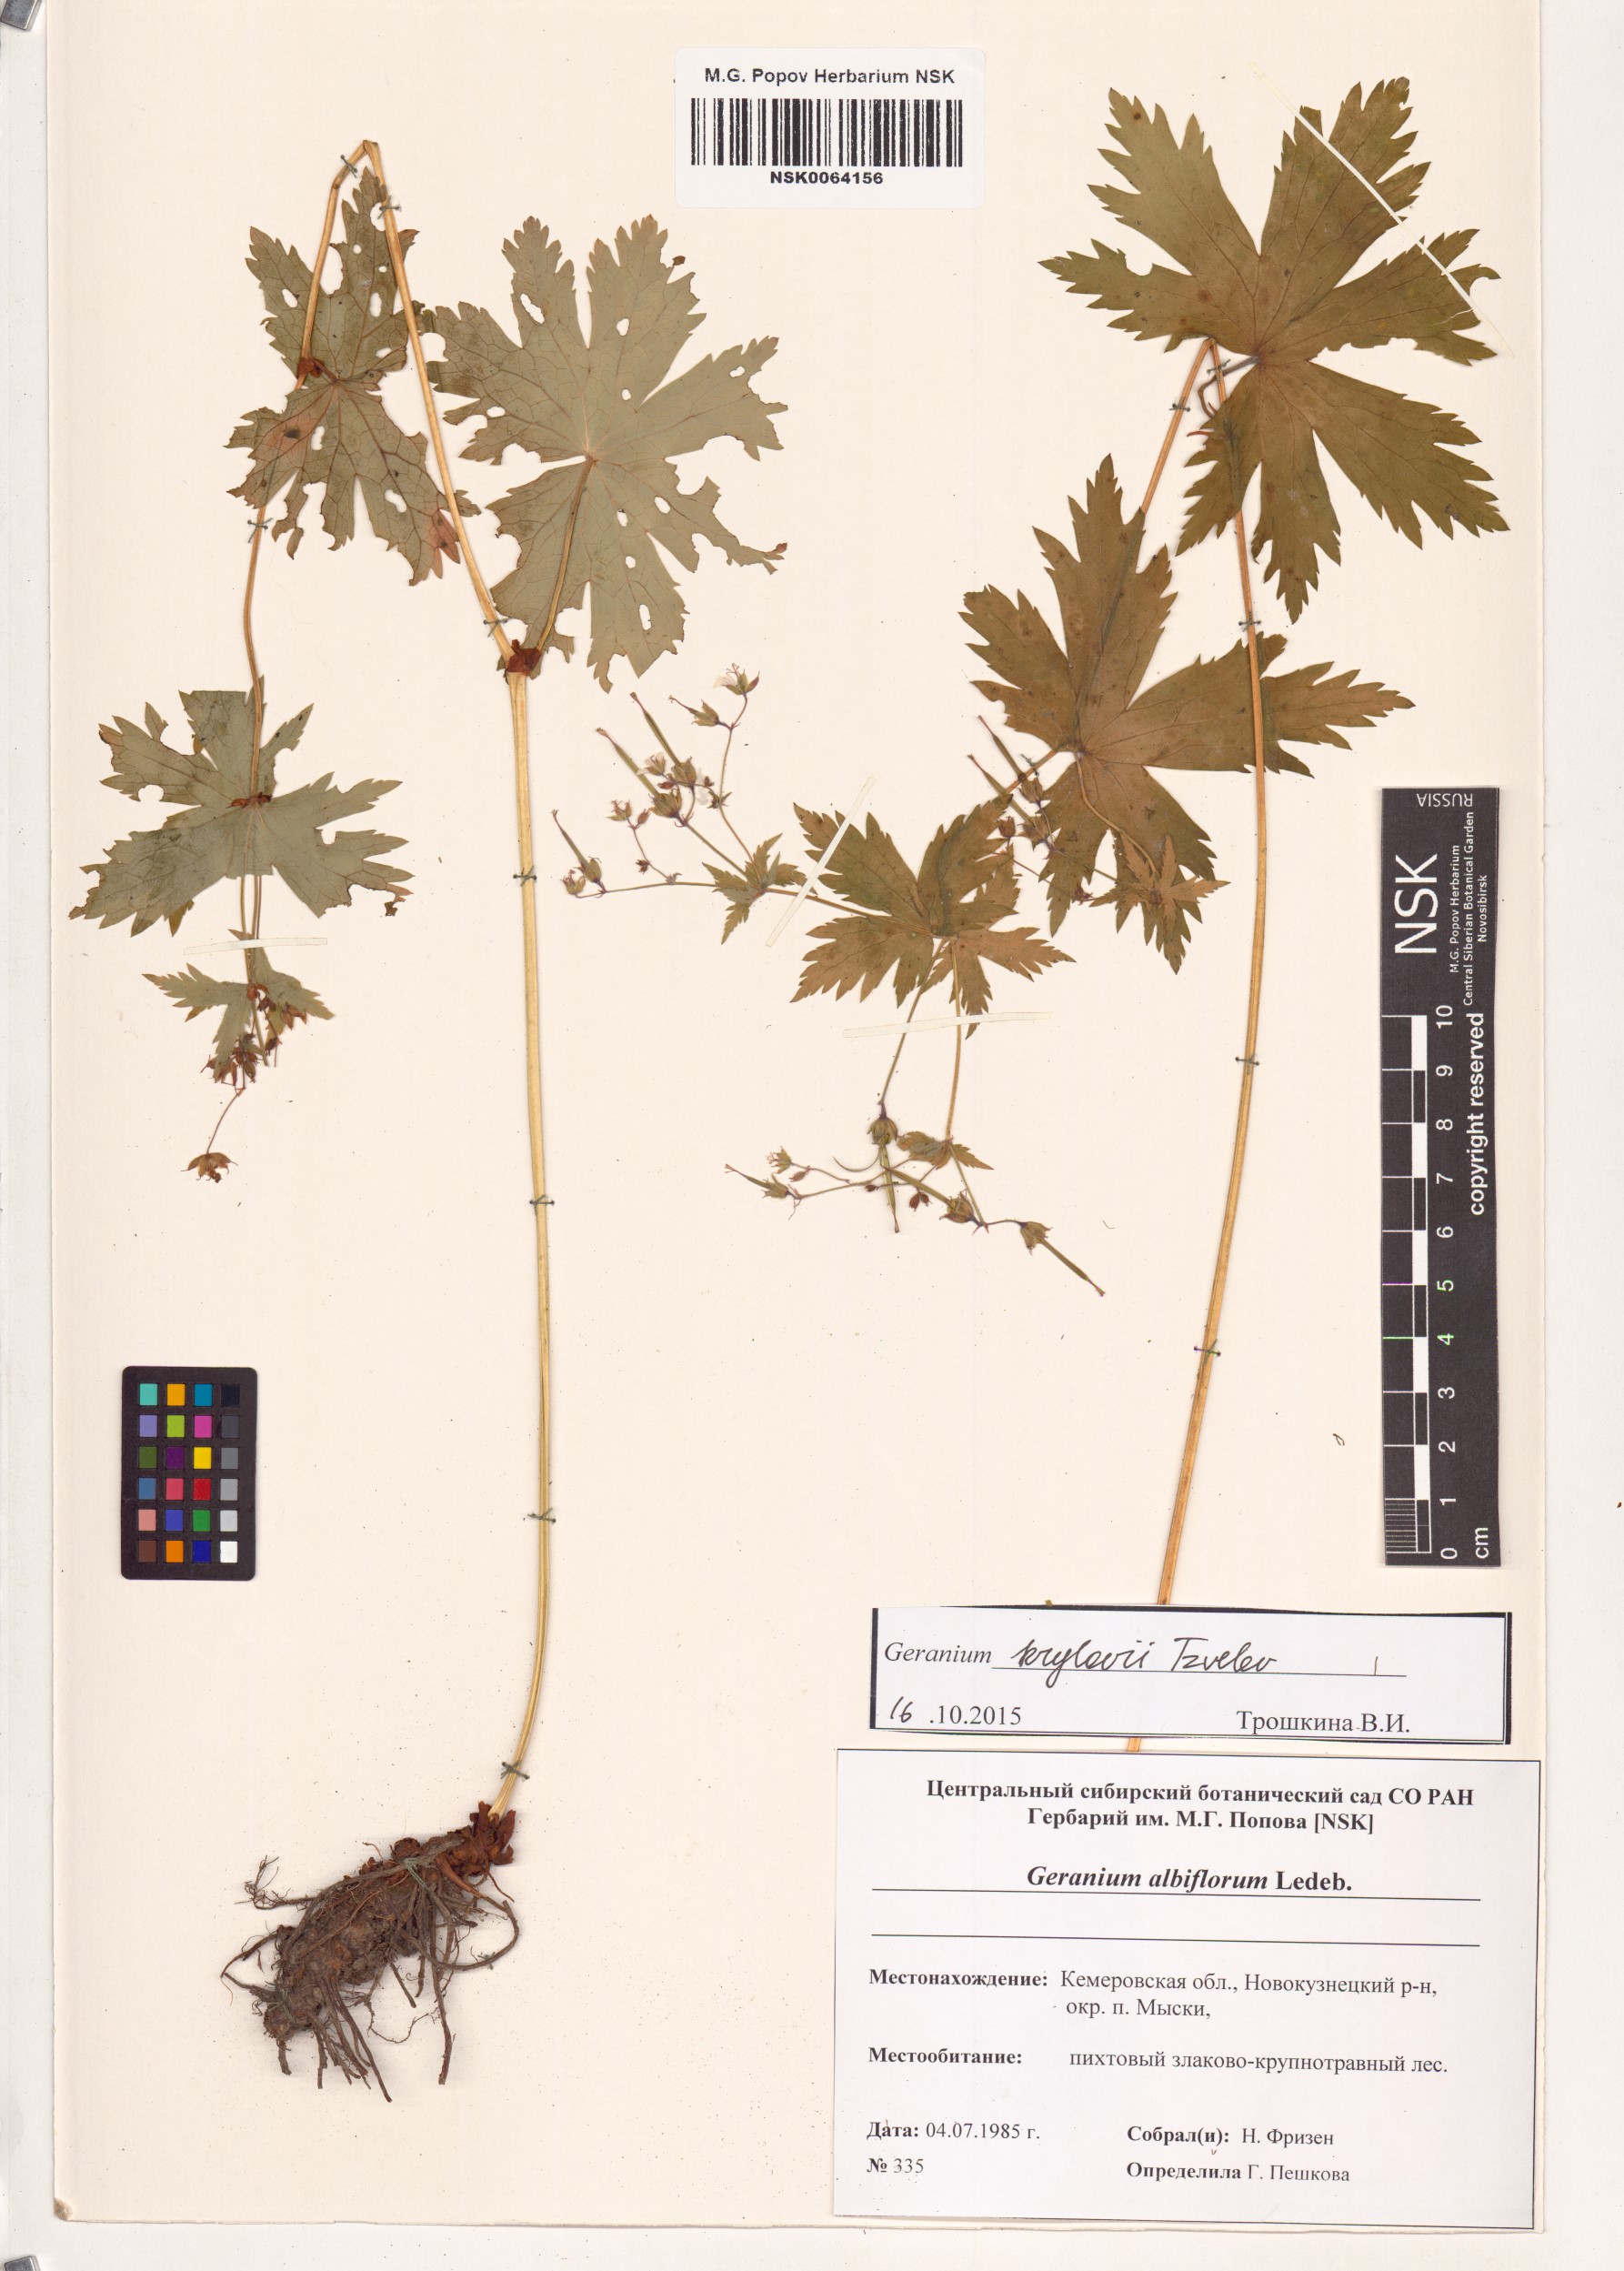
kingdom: Plantae
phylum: Tracheophyta
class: Magnoliopsida
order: Geraniales
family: Geraniaceae
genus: Geranium
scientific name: Geranium sylvaticum
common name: Wood crane's-bill
